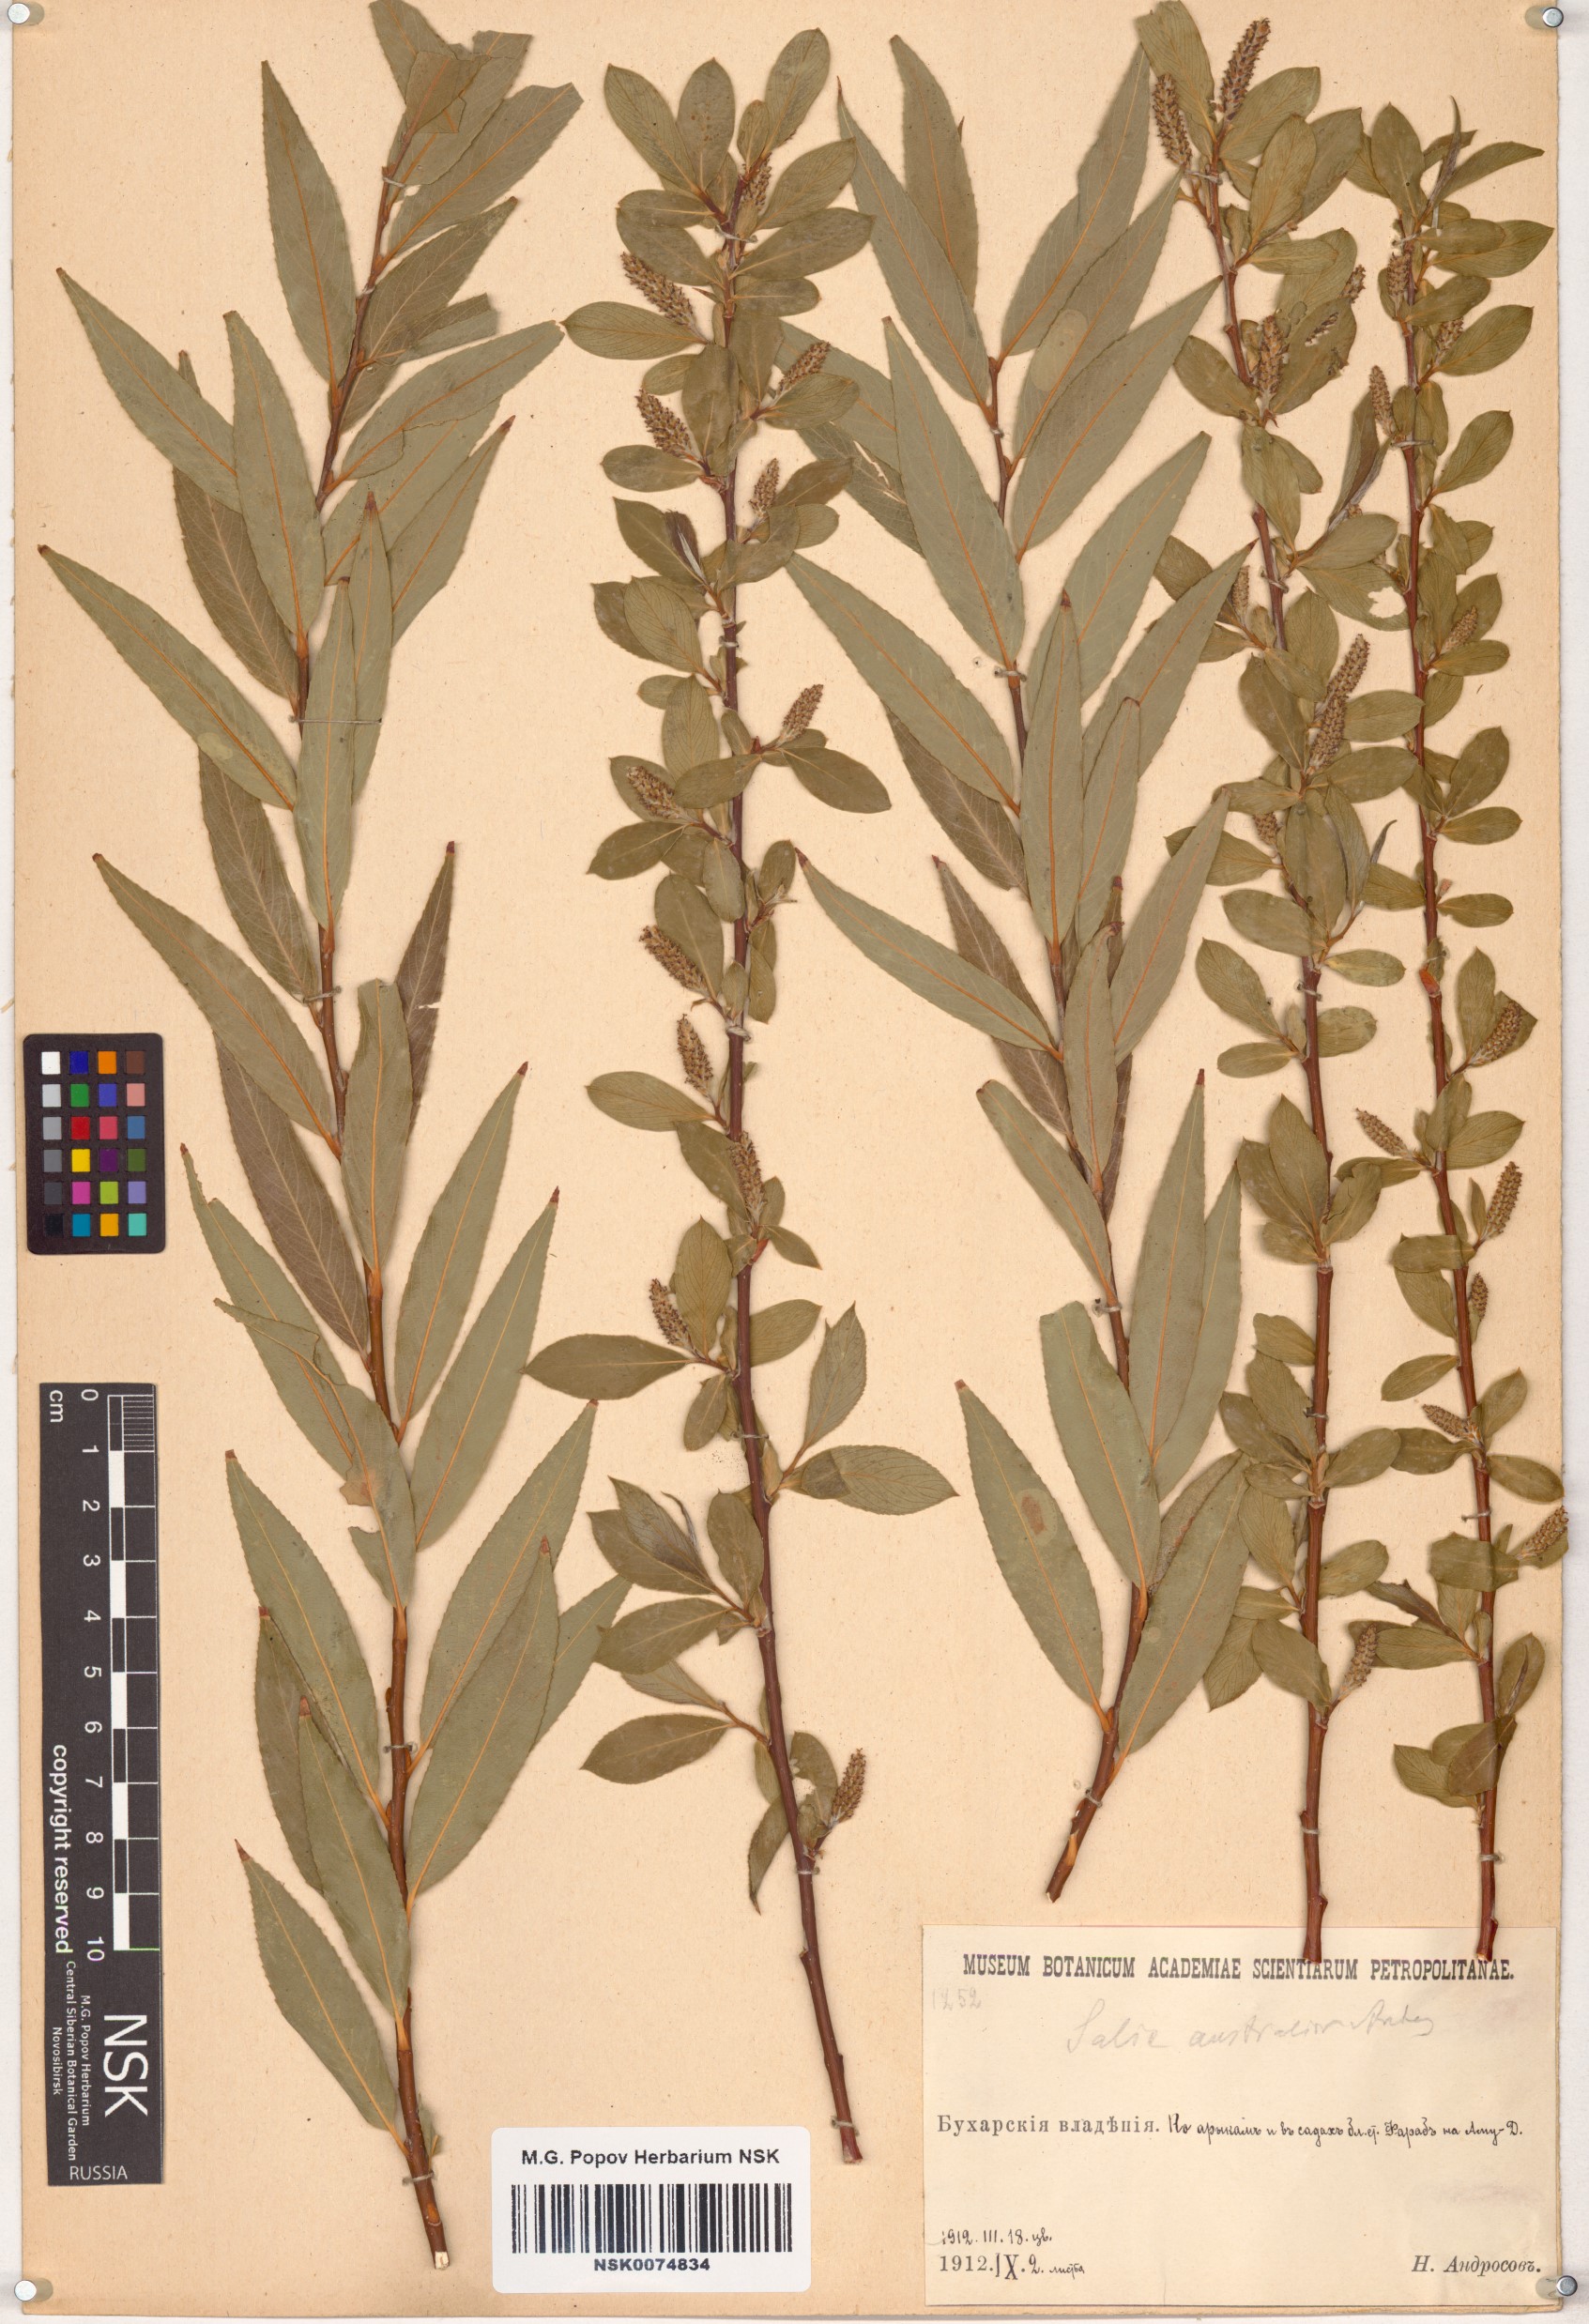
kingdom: Plantae
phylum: Tracheophyta
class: Magnoliopsida
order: Malpighiales
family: Salicaceae
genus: Salix
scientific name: Salix excelsa
